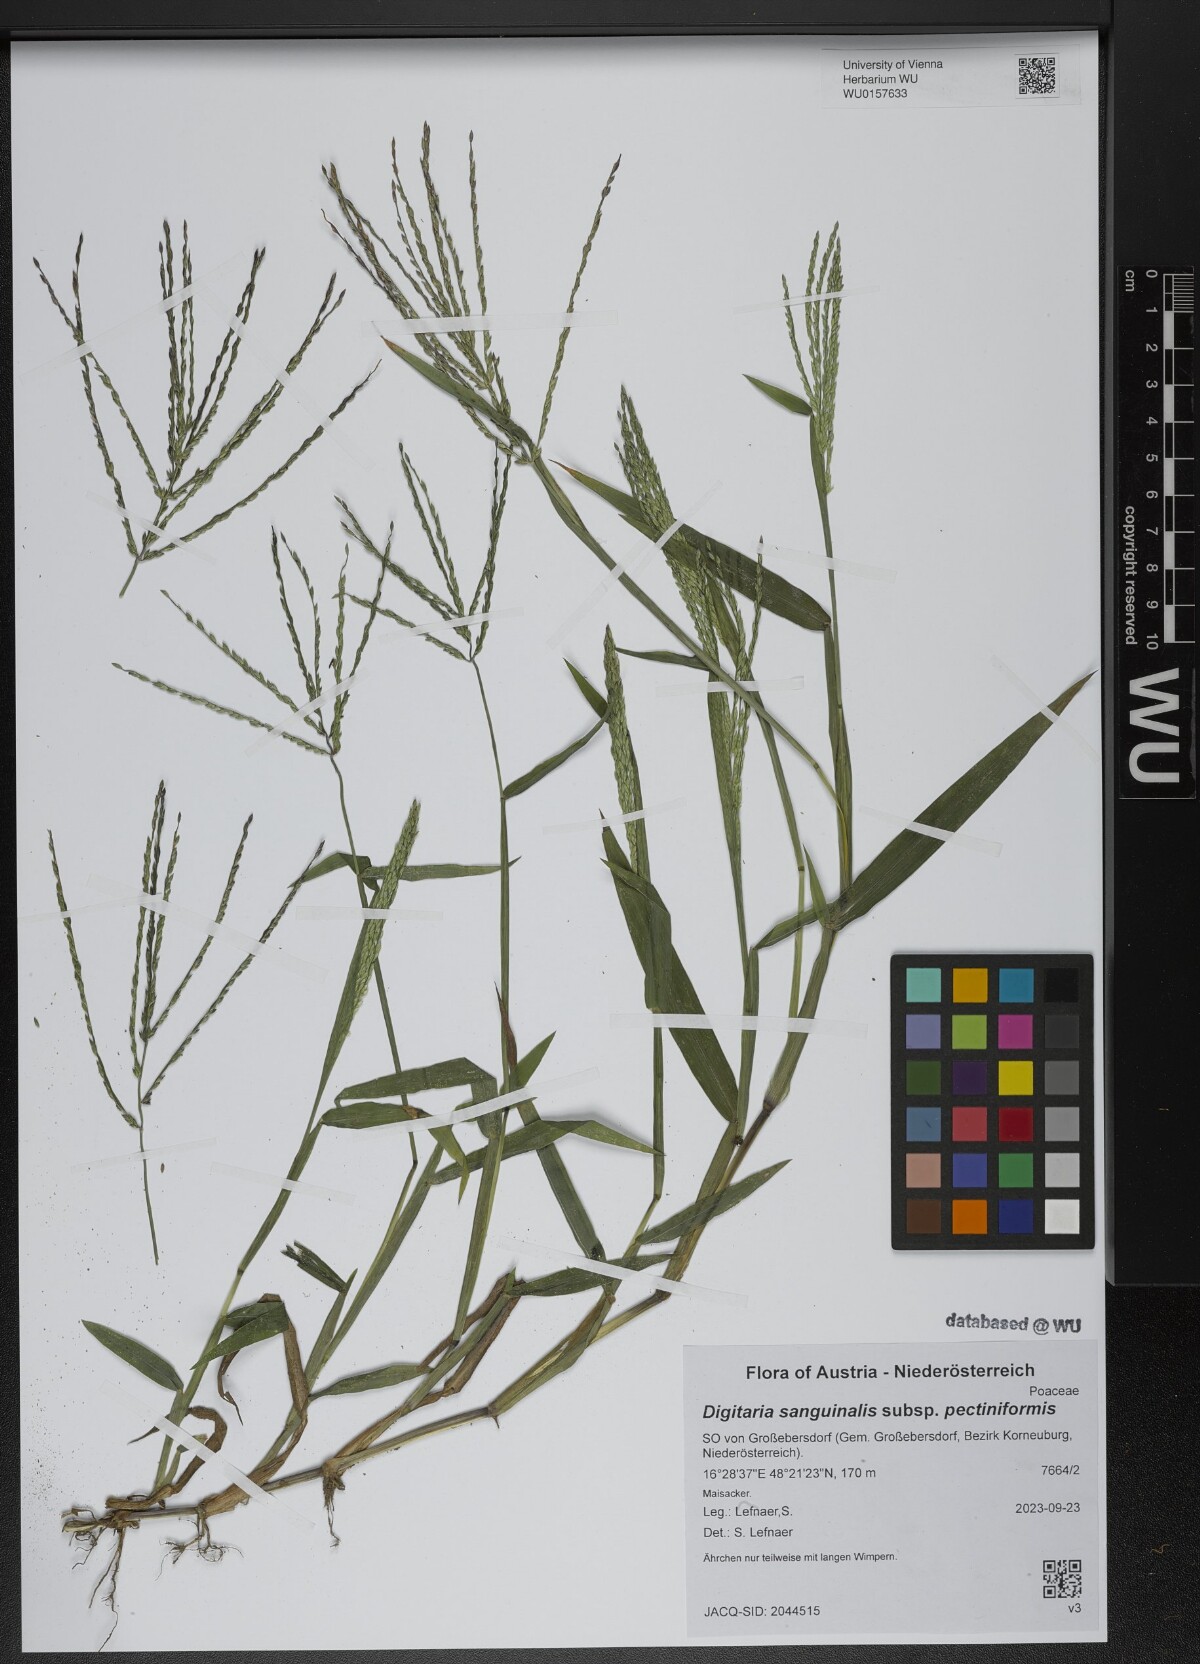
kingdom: Plantae
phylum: Tracheophyta
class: Liliopsida
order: Poales
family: Poaceae
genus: Digitaria
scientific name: Digitaria sanguinalis
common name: Hairy crabgrass
